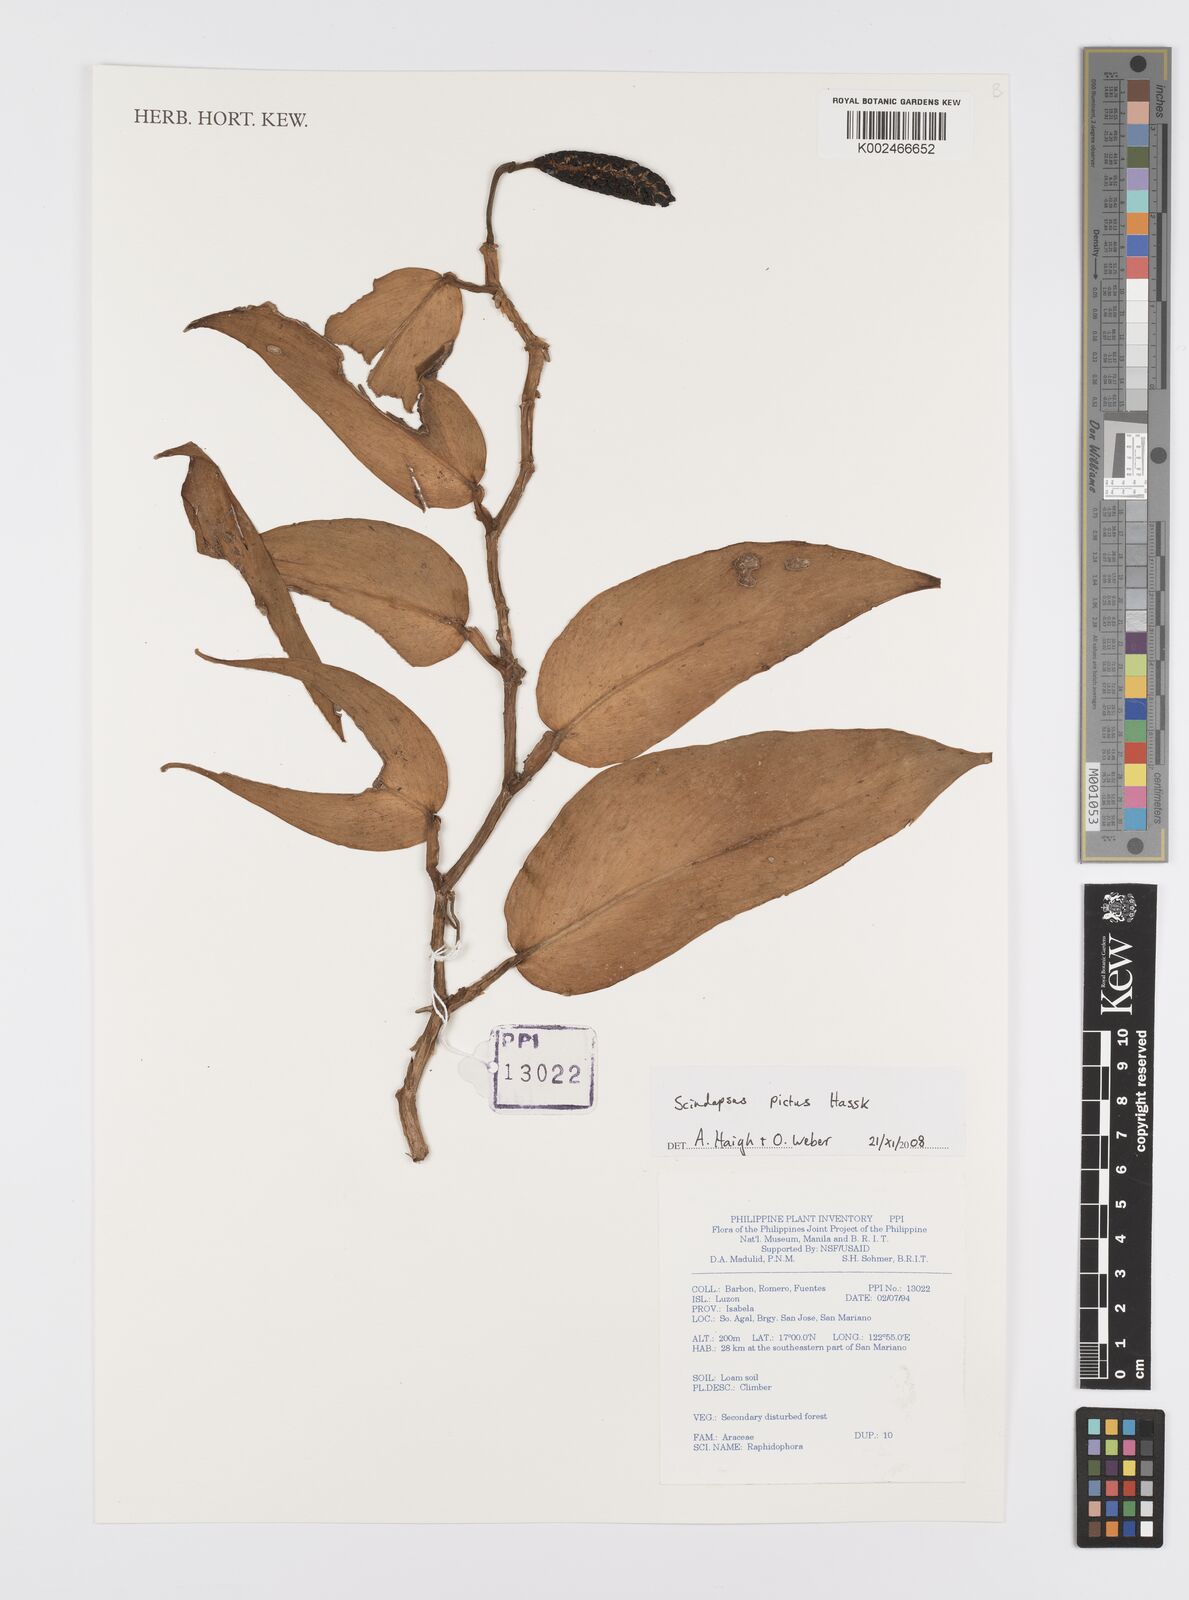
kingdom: Plantae
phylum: Tracheophyta
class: Liliopsida
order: Alismatales
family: Araceae
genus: Scindapsus
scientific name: Scindapsus pictus
